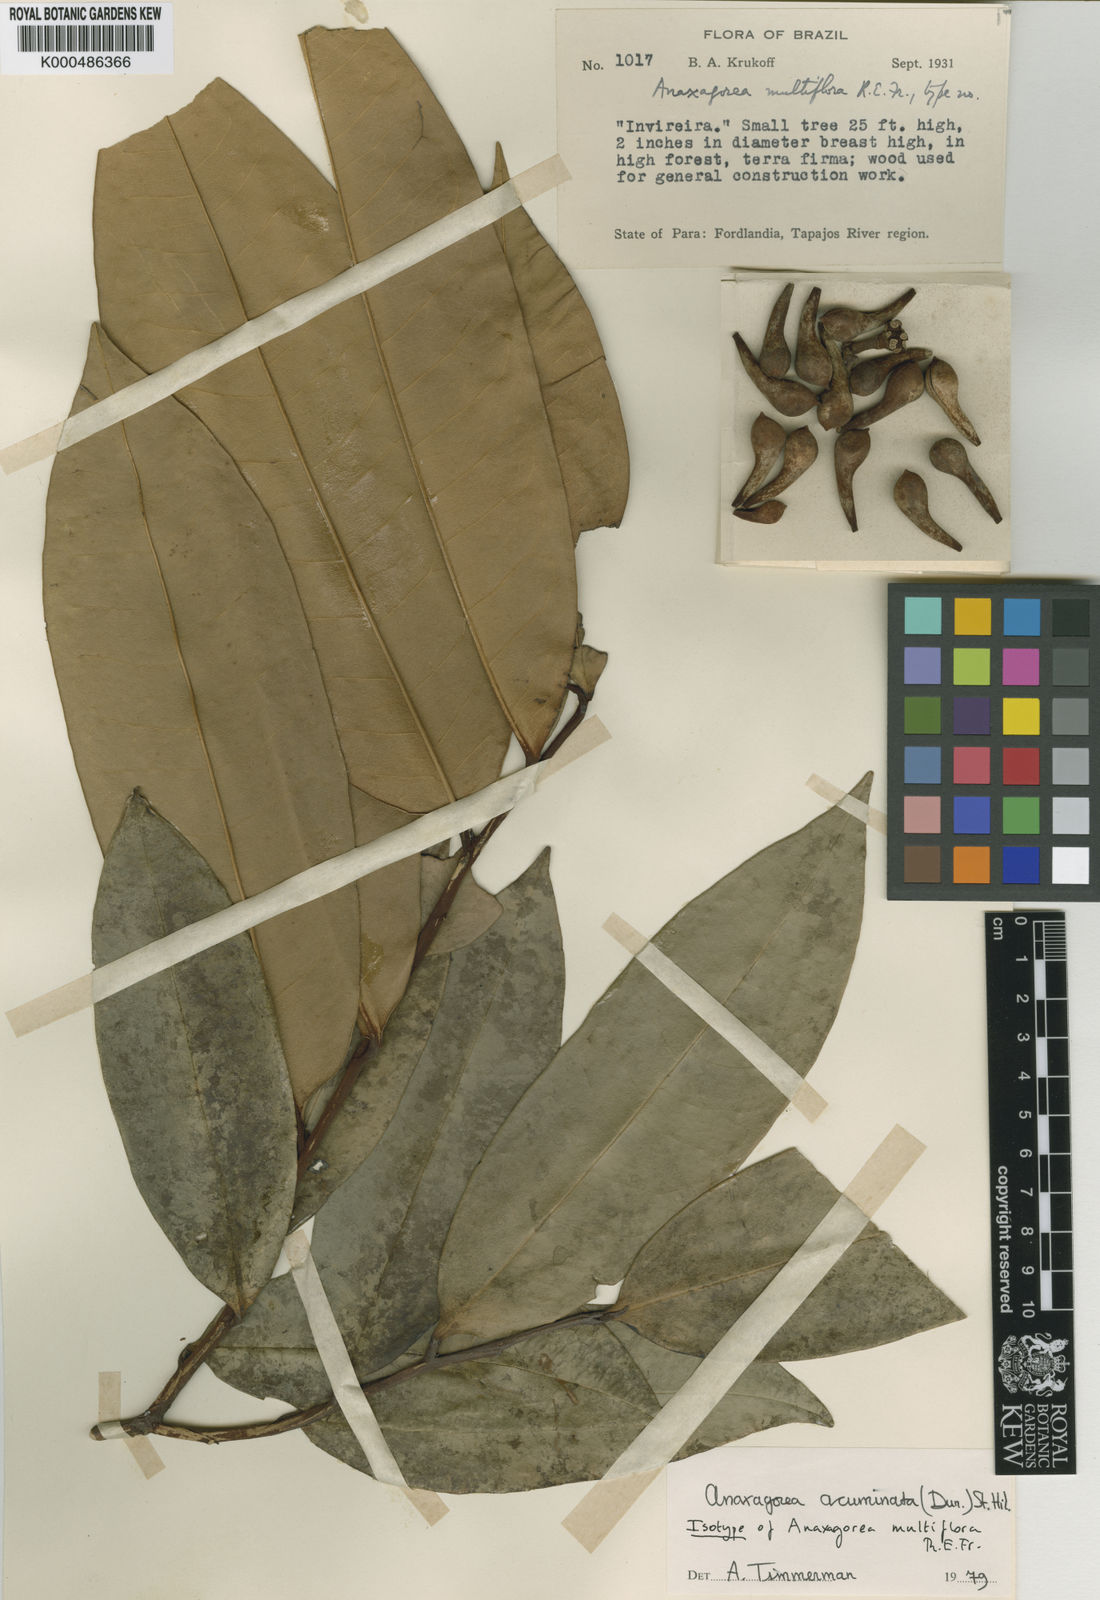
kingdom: Plantae
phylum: Tracheophyta
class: Magnoliopsida
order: Magnoliales
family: Annonaceae
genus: Anaxagorea
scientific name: Anaxagorea acuminata
